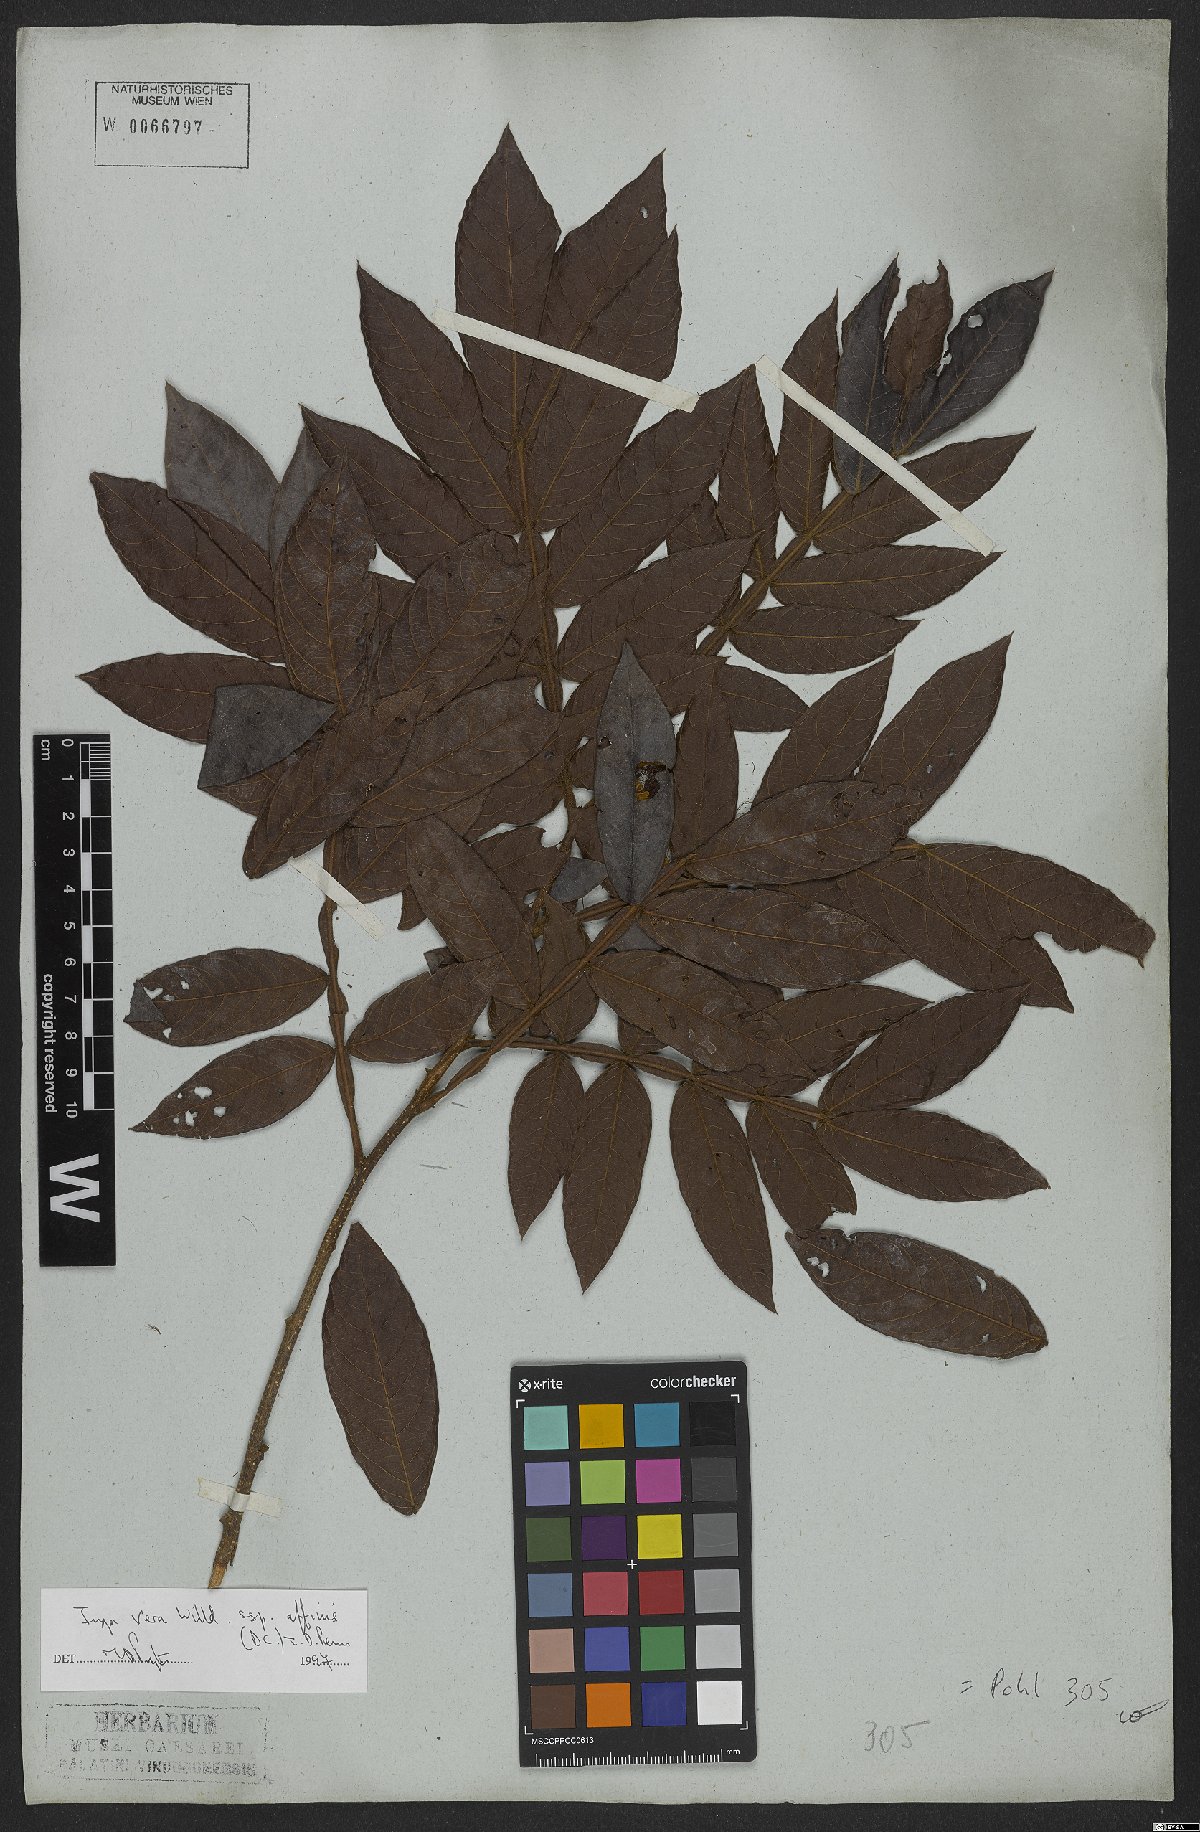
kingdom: Plantae
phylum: Tracheophyta
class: Magnoliopsida
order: Fabales
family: Fabaceae
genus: Inga
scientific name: Inga affinis
